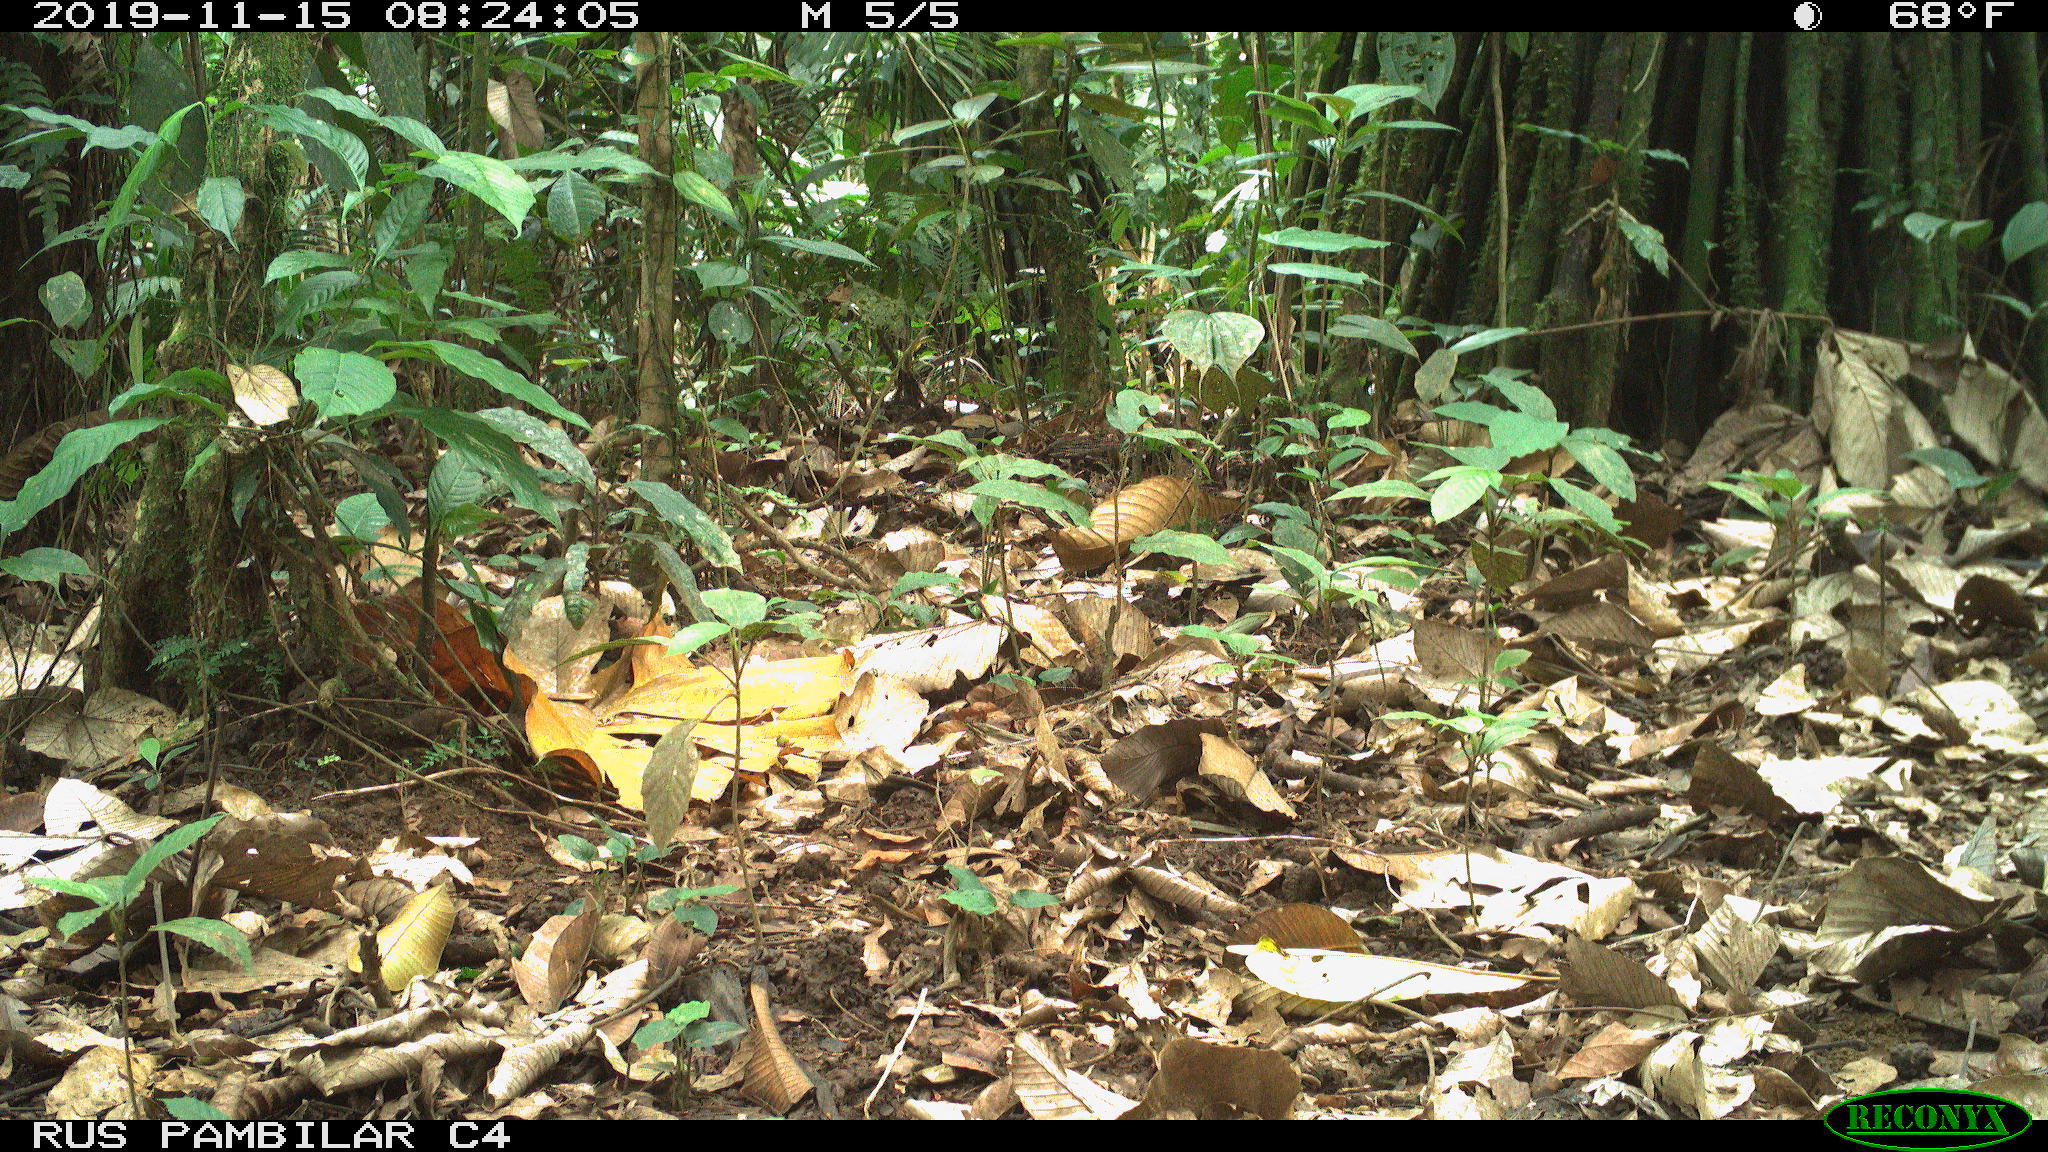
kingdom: Animalia
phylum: Chordata
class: Mammalia
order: Artiodactyla
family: Tayassuidae
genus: Tayassu
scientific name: Tayassu pecari
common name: White-lipped peccary
